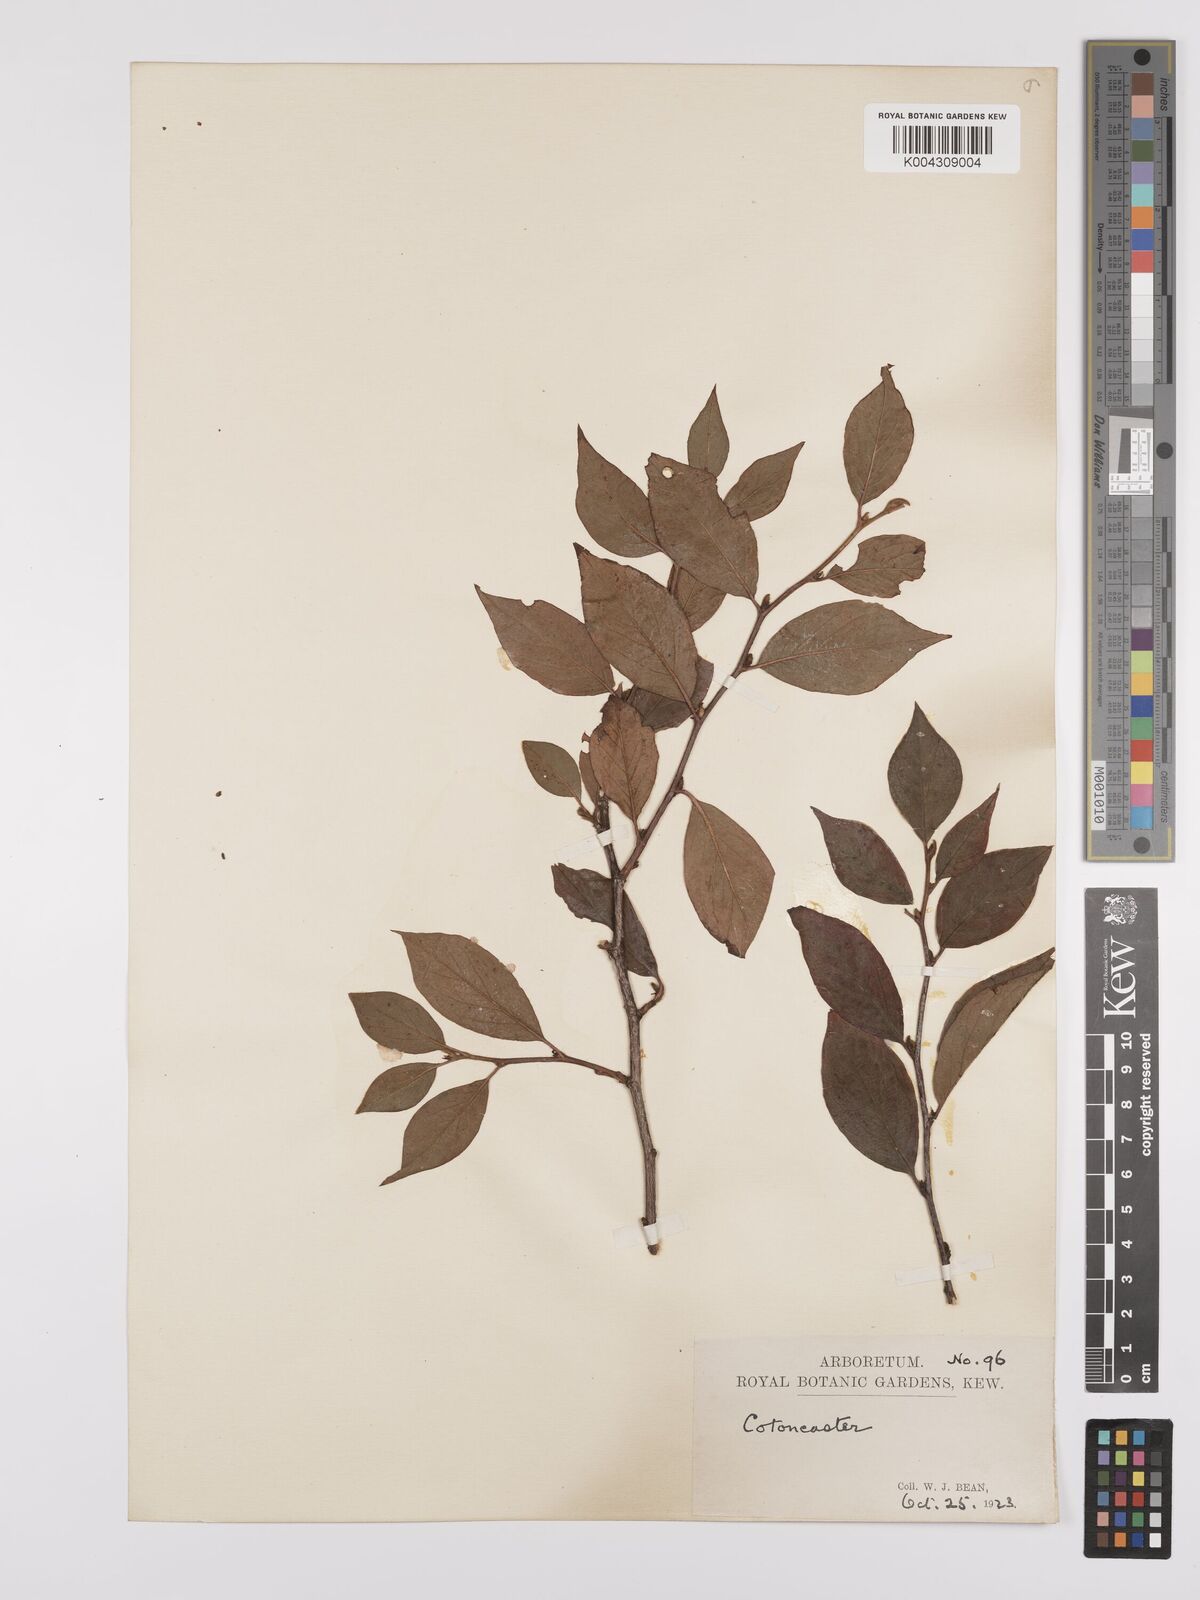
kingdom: Plantae
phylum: Tracheophyta
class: Magnoliopsida
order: Rosales
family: Rosaceae
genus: Cotoneaster
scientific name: Cotoneaster
